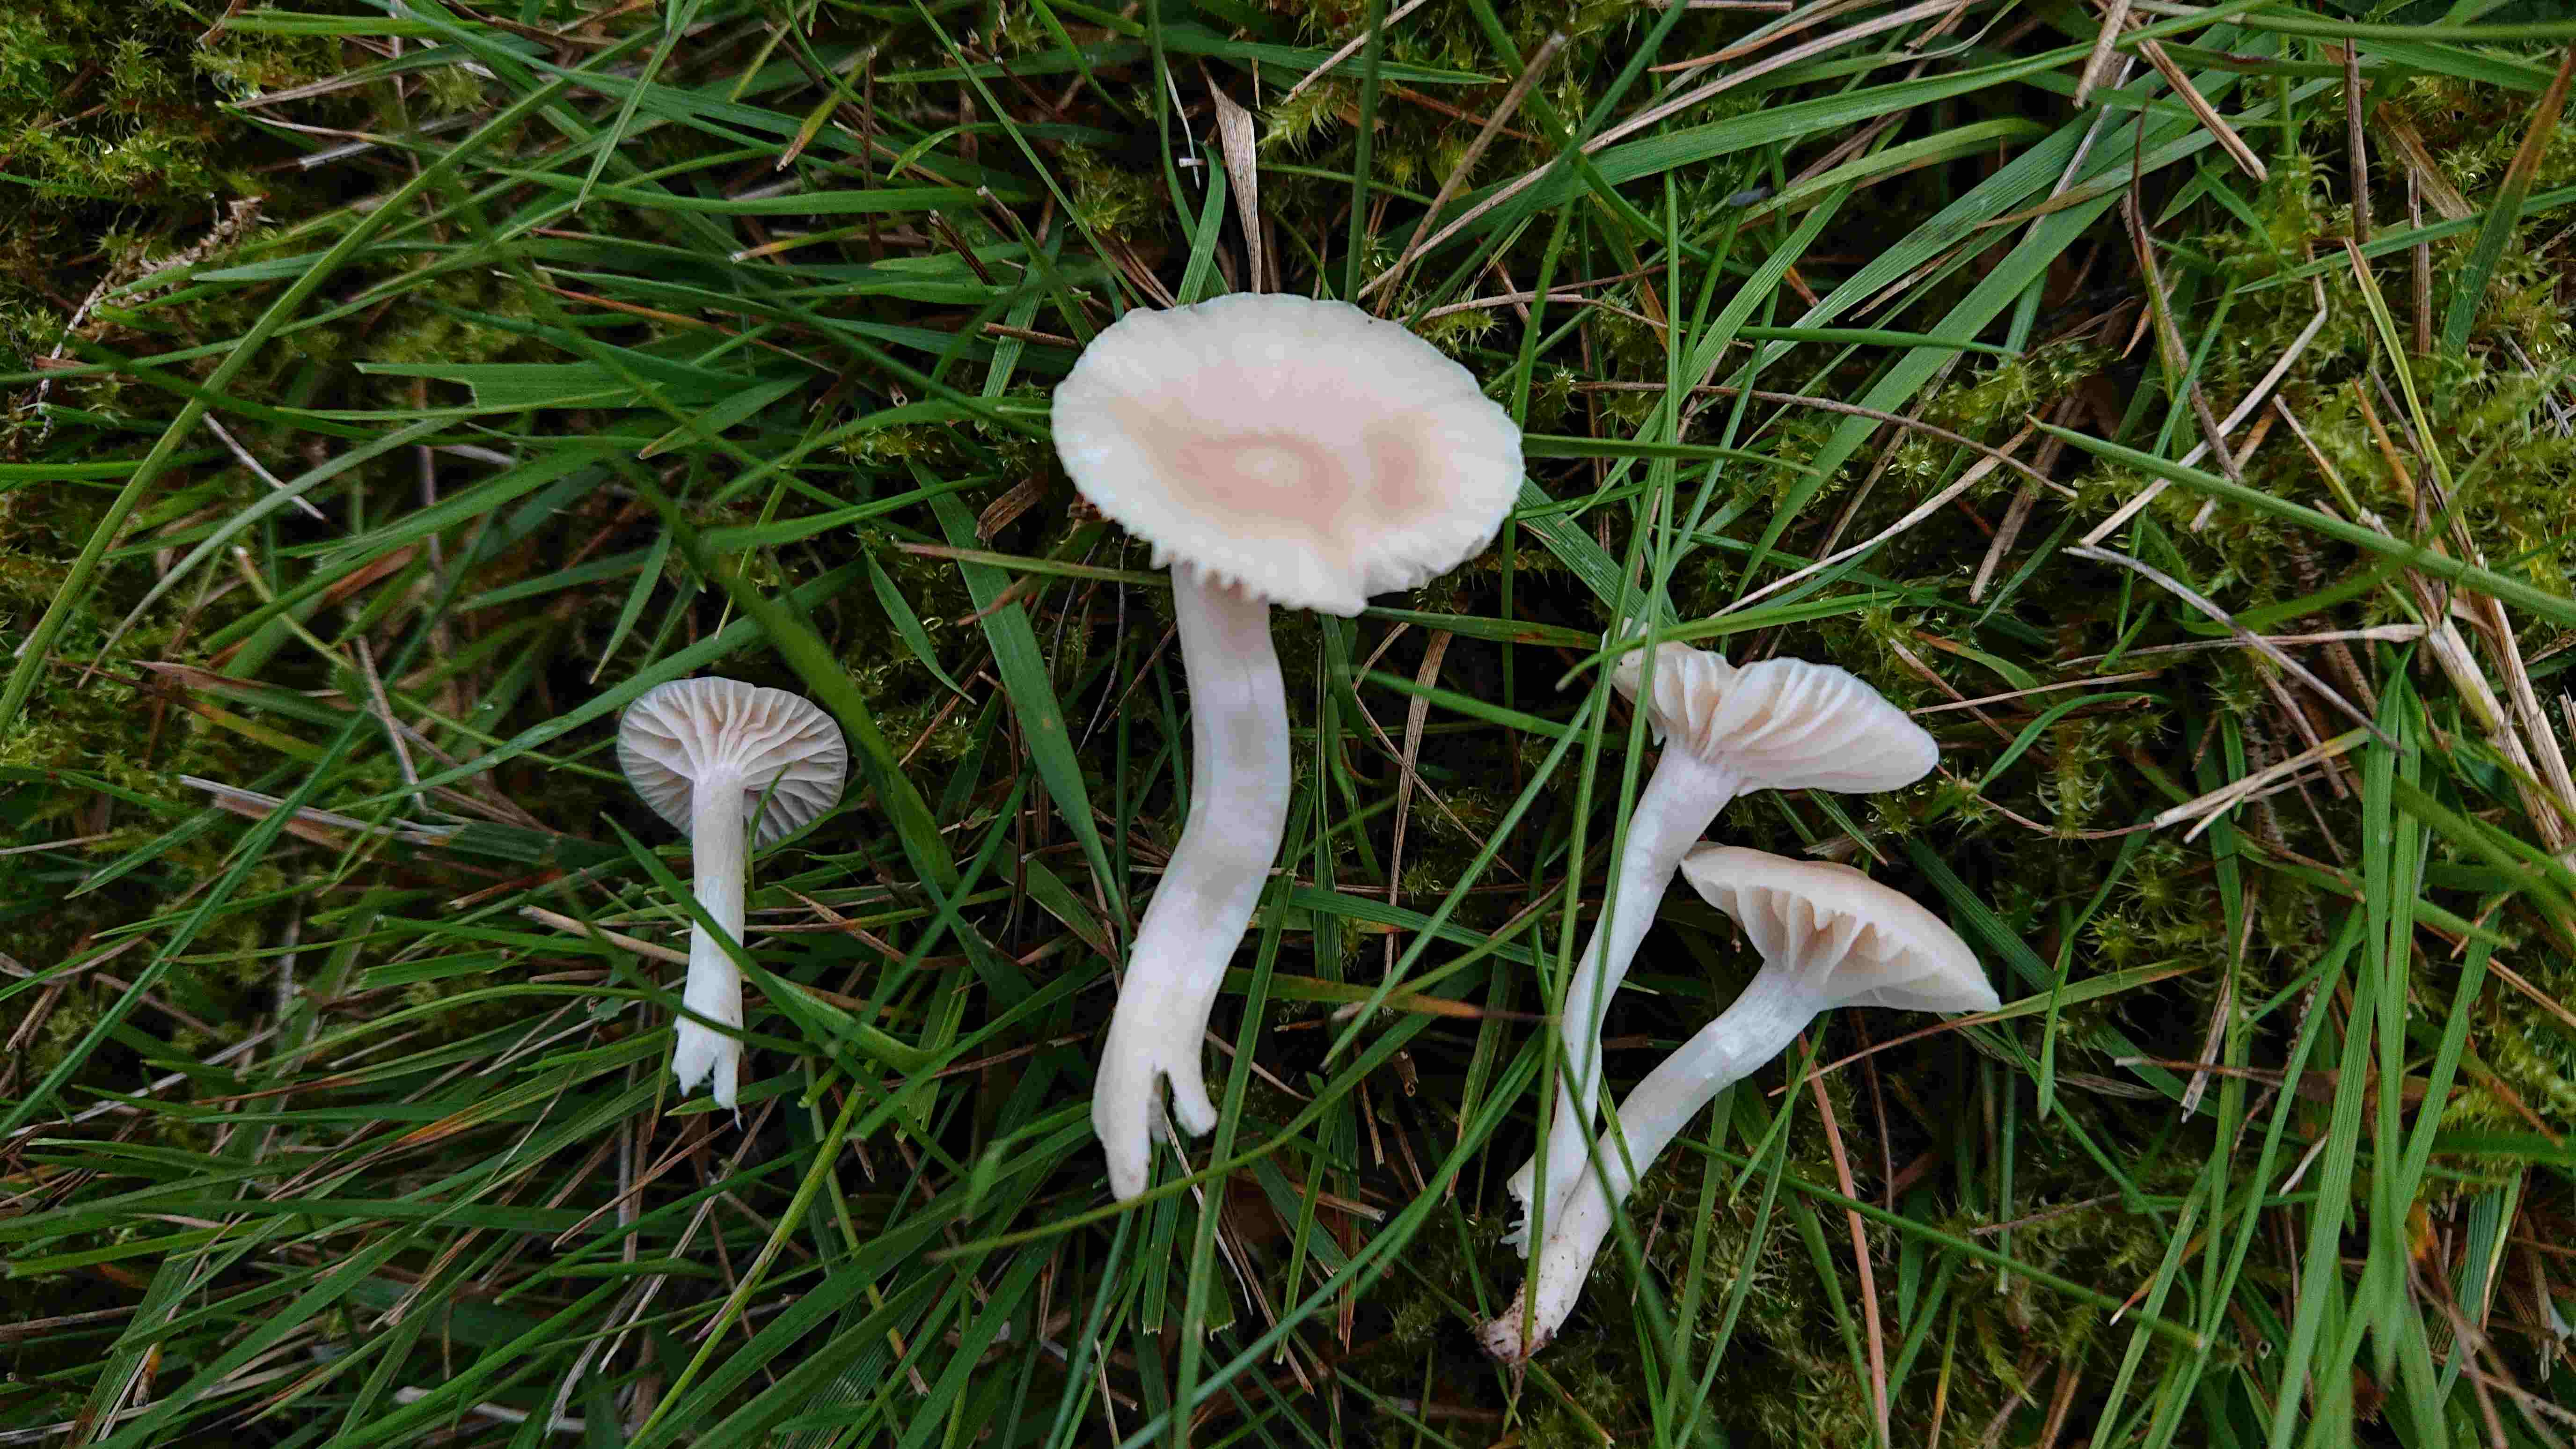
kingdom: Fungi
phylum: Basidiomycota
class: Agaricomycetes
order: Agaricales
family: Hygrophoraceae
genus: Cuphophyllus
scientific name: Cuphophyllus russocoriaceus
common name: ruslæder-vokshat
